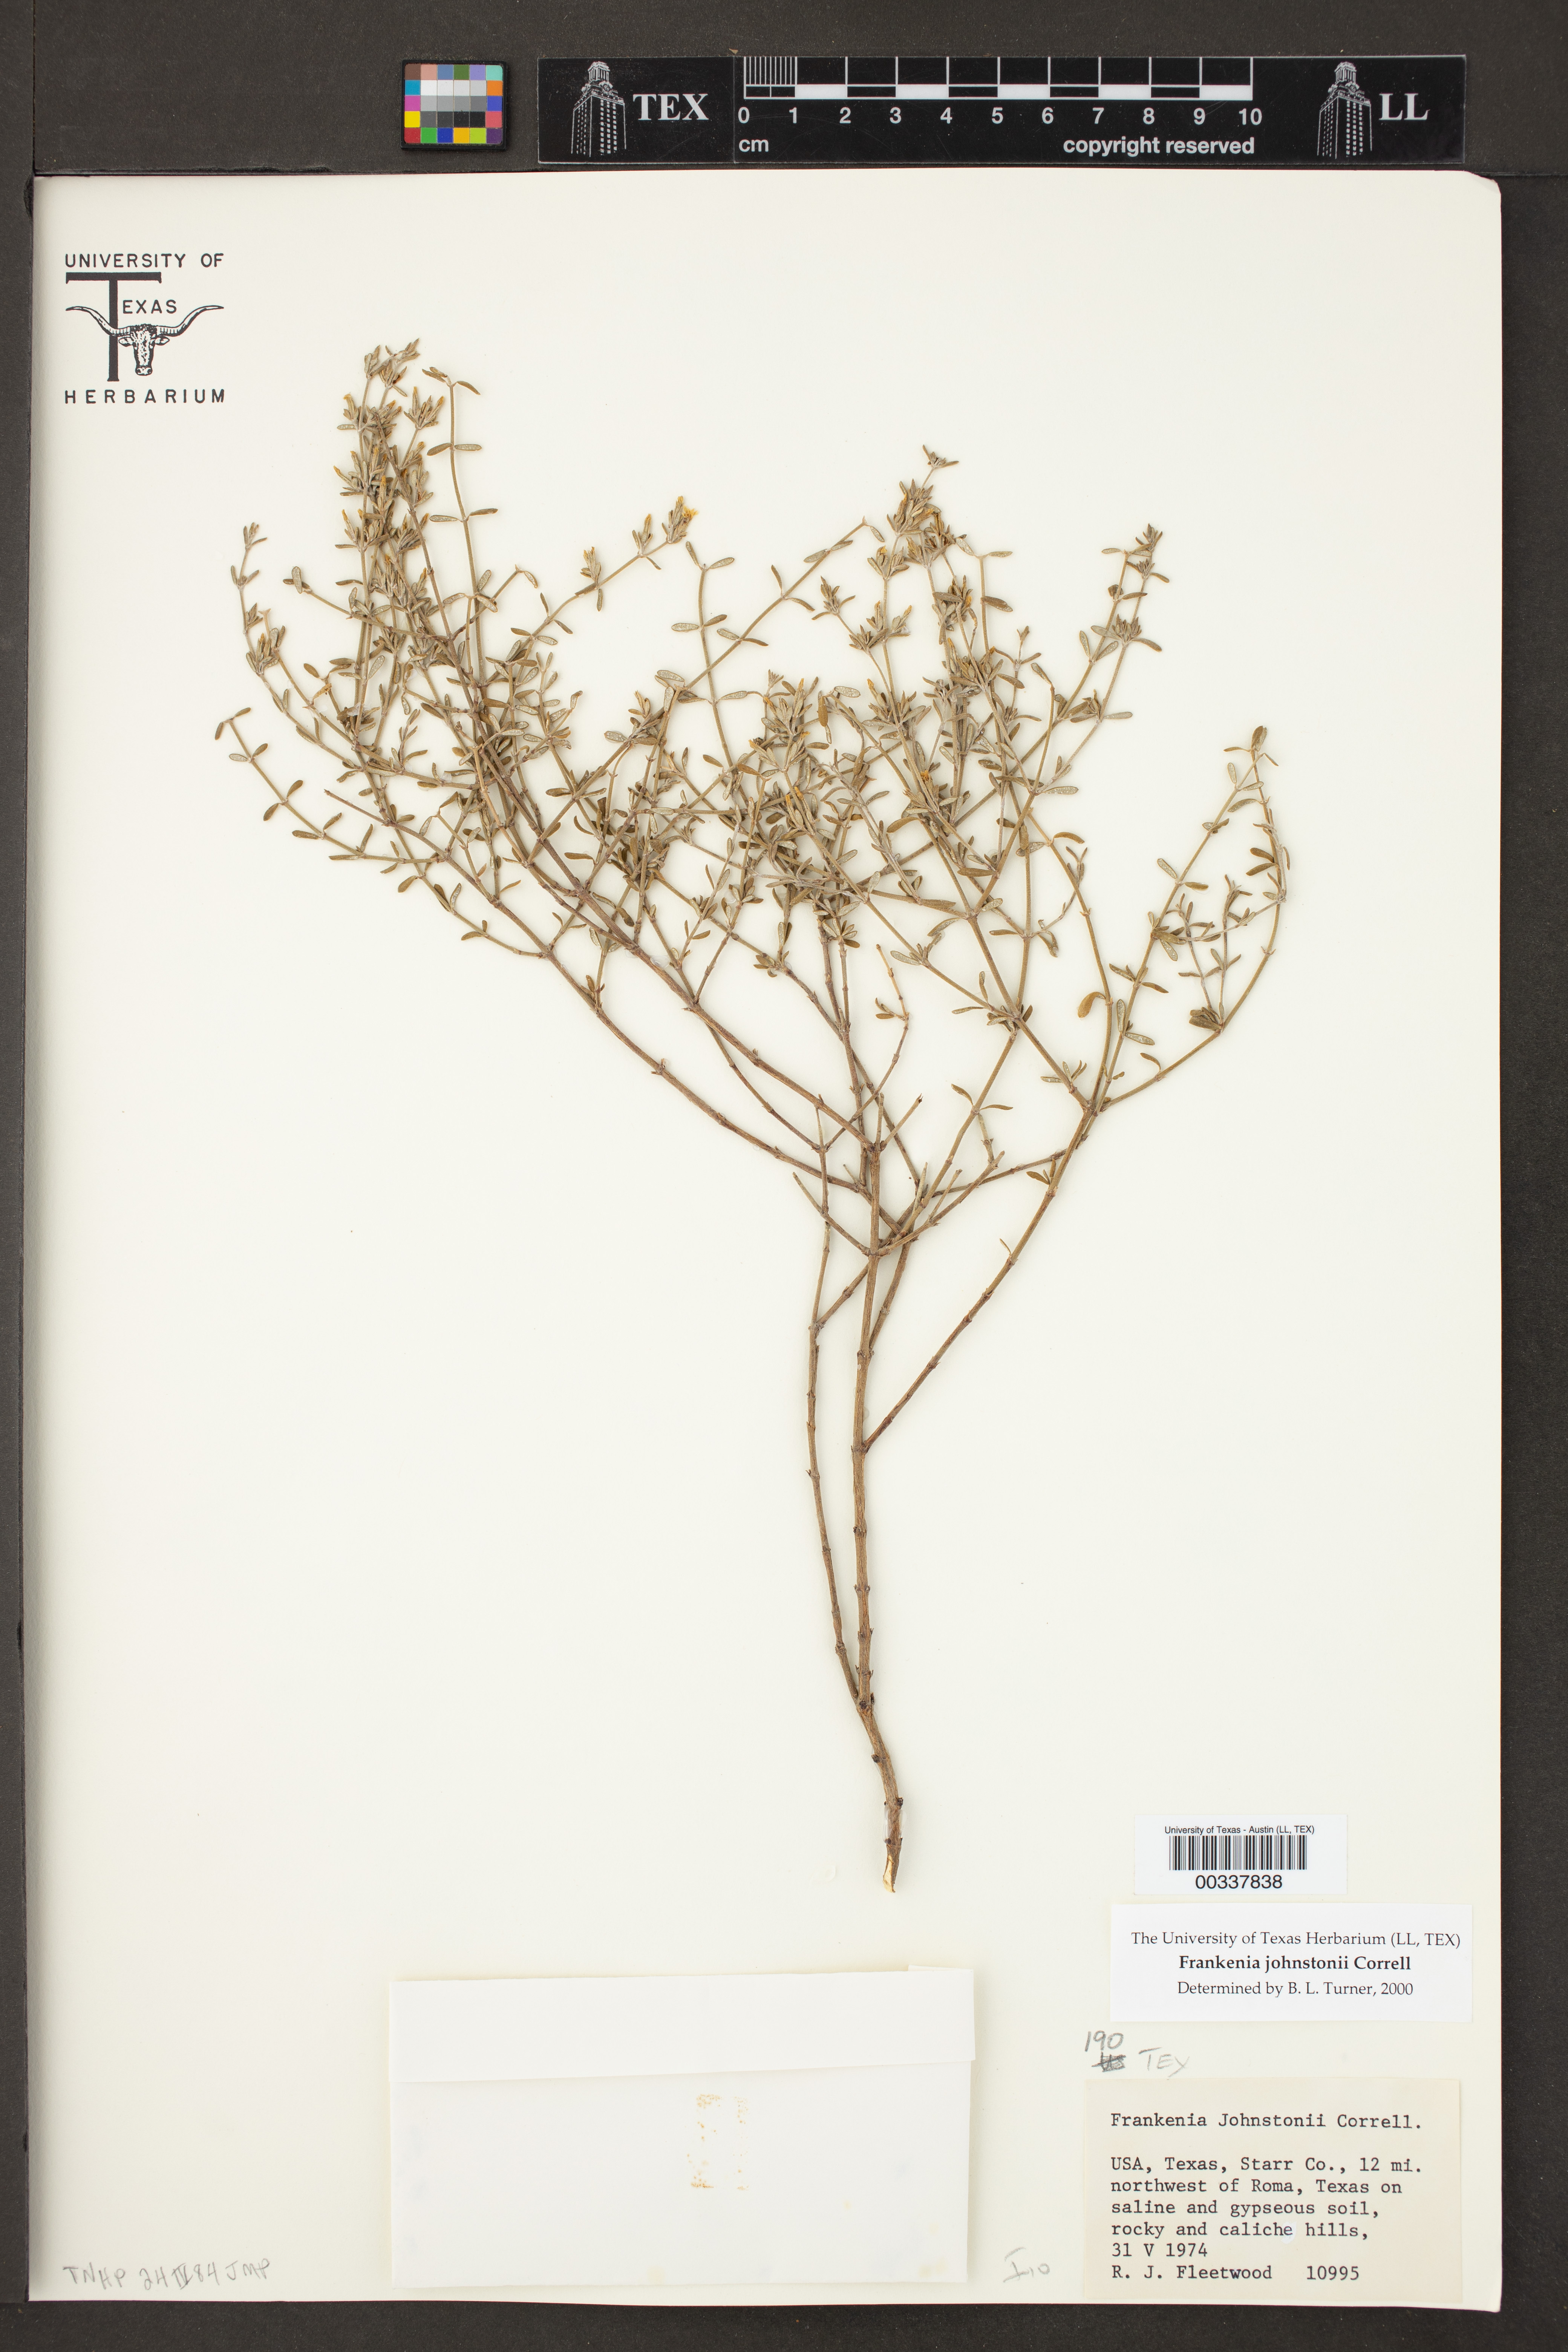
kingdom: Plantae
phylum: Tracheophyta
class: Magnoliopsida
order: Caryophyllales
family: Frankeniaceae
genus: Frankenia
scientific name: Frankenia johnstonii
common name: Johnston's frankenia
